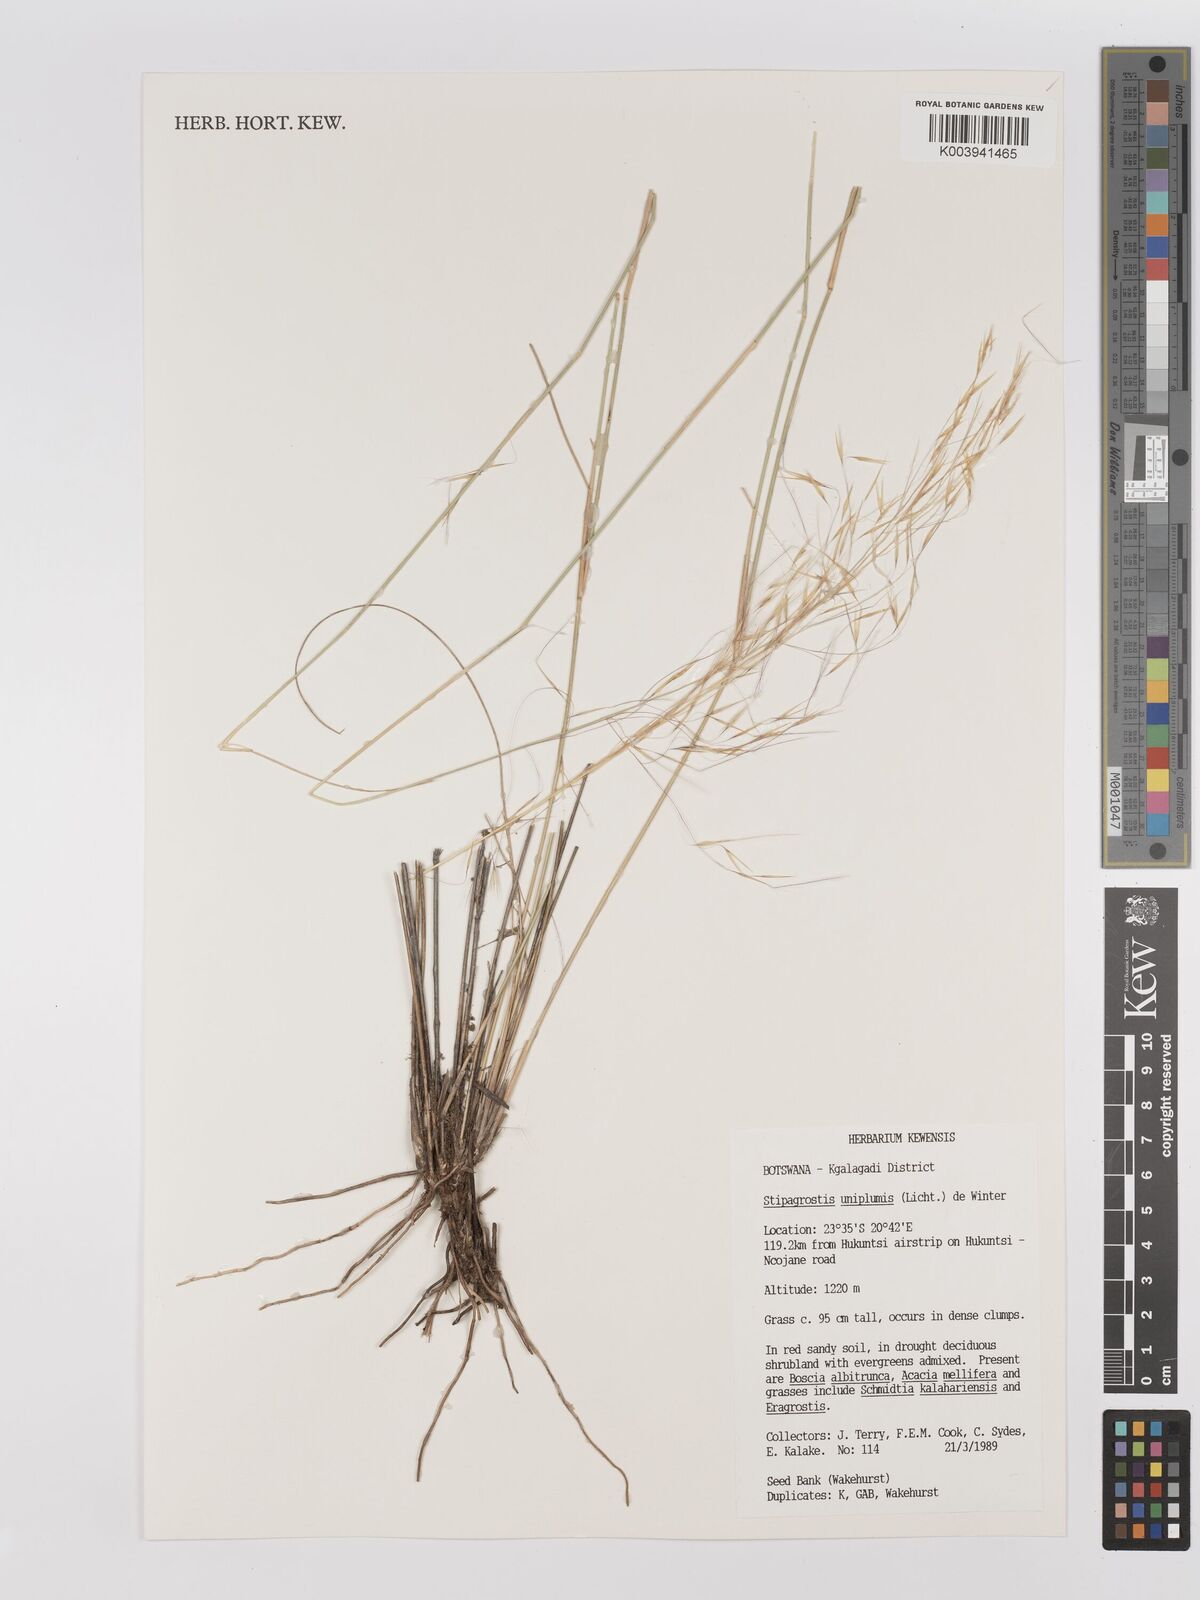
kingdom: Plantae
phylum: Tracheophyta
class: Liliopsida
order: Poales
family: Poaceae
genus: Stipagrostis
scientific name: Stipagrostis uniplumis
